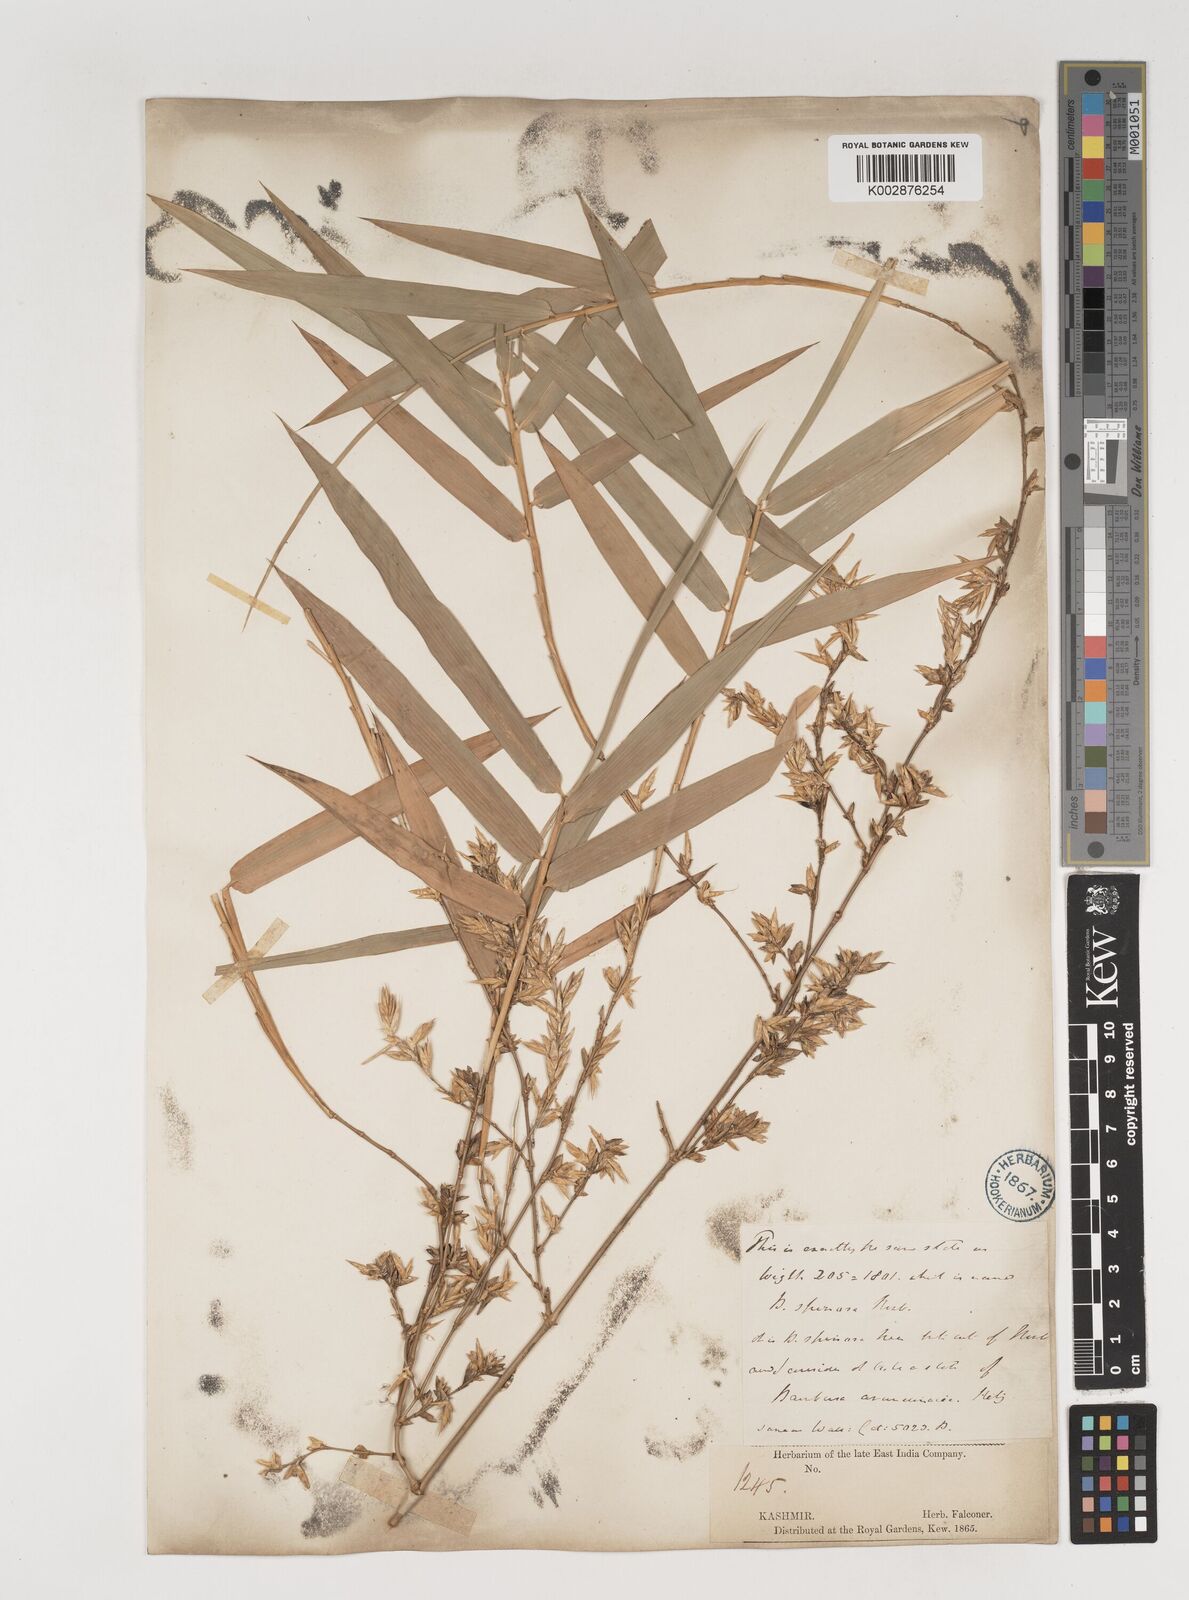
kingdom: Plantae
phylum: Tracheophyta
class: Liliopsida
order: Poales
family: Poaceae
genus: Bambusa
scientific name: Bambusa
